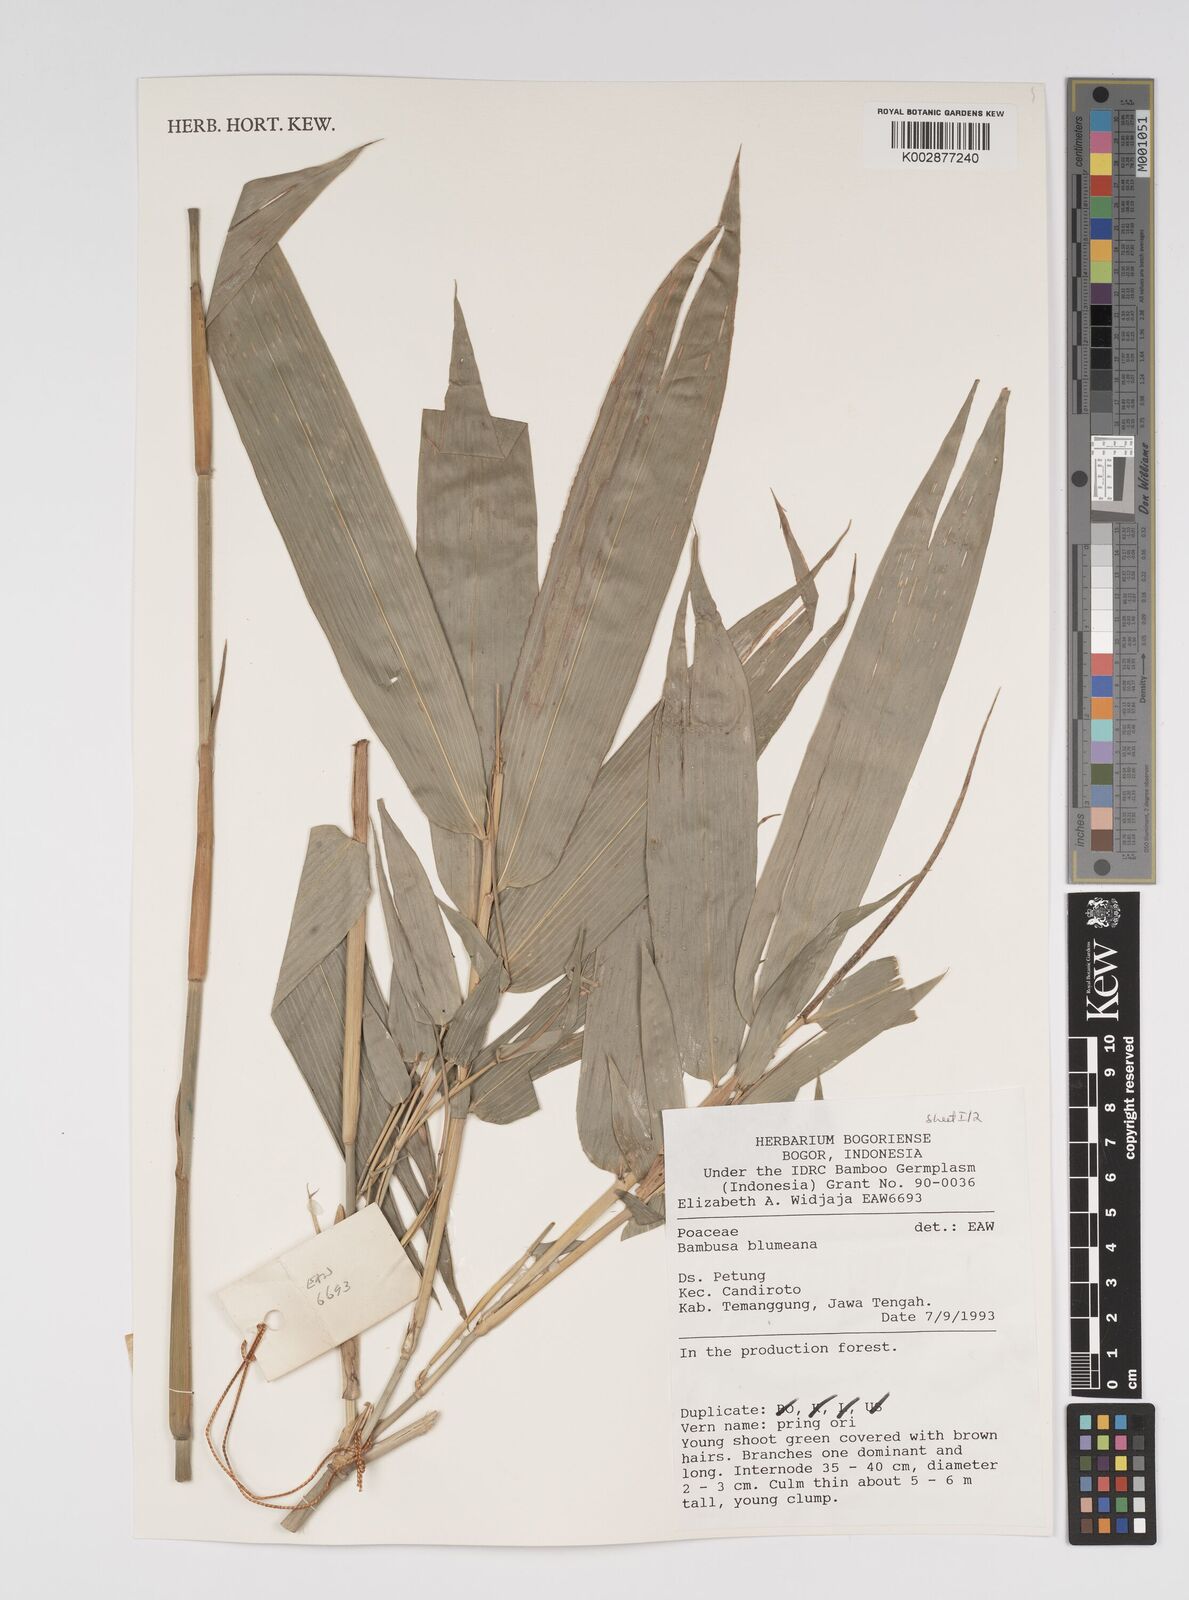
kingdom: Plantae
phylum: Tracheophyta
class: Liliopsida
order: Poales
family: Poaceae
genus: Bambusa
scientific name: Bambusa
